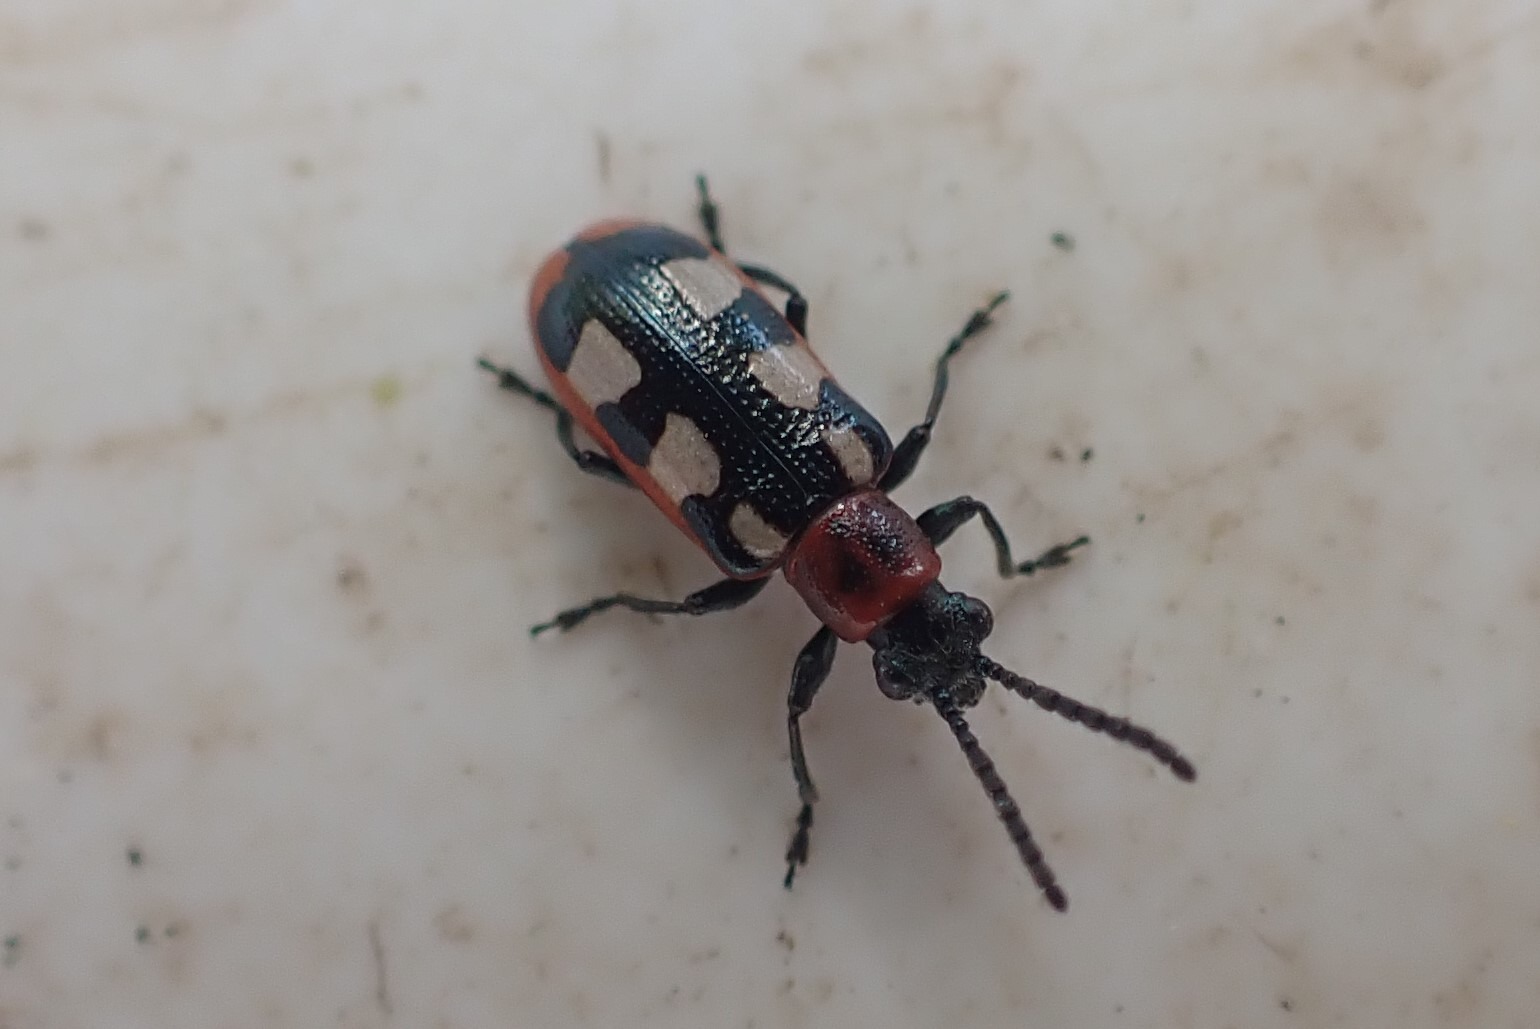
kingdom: Animalia
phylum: Arthropoda
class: Insecta
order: Coleoptera
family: Chrysomelidae
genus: Crioceris
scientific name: Crioceris asparagi
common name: Gulplettet aspargesbille
